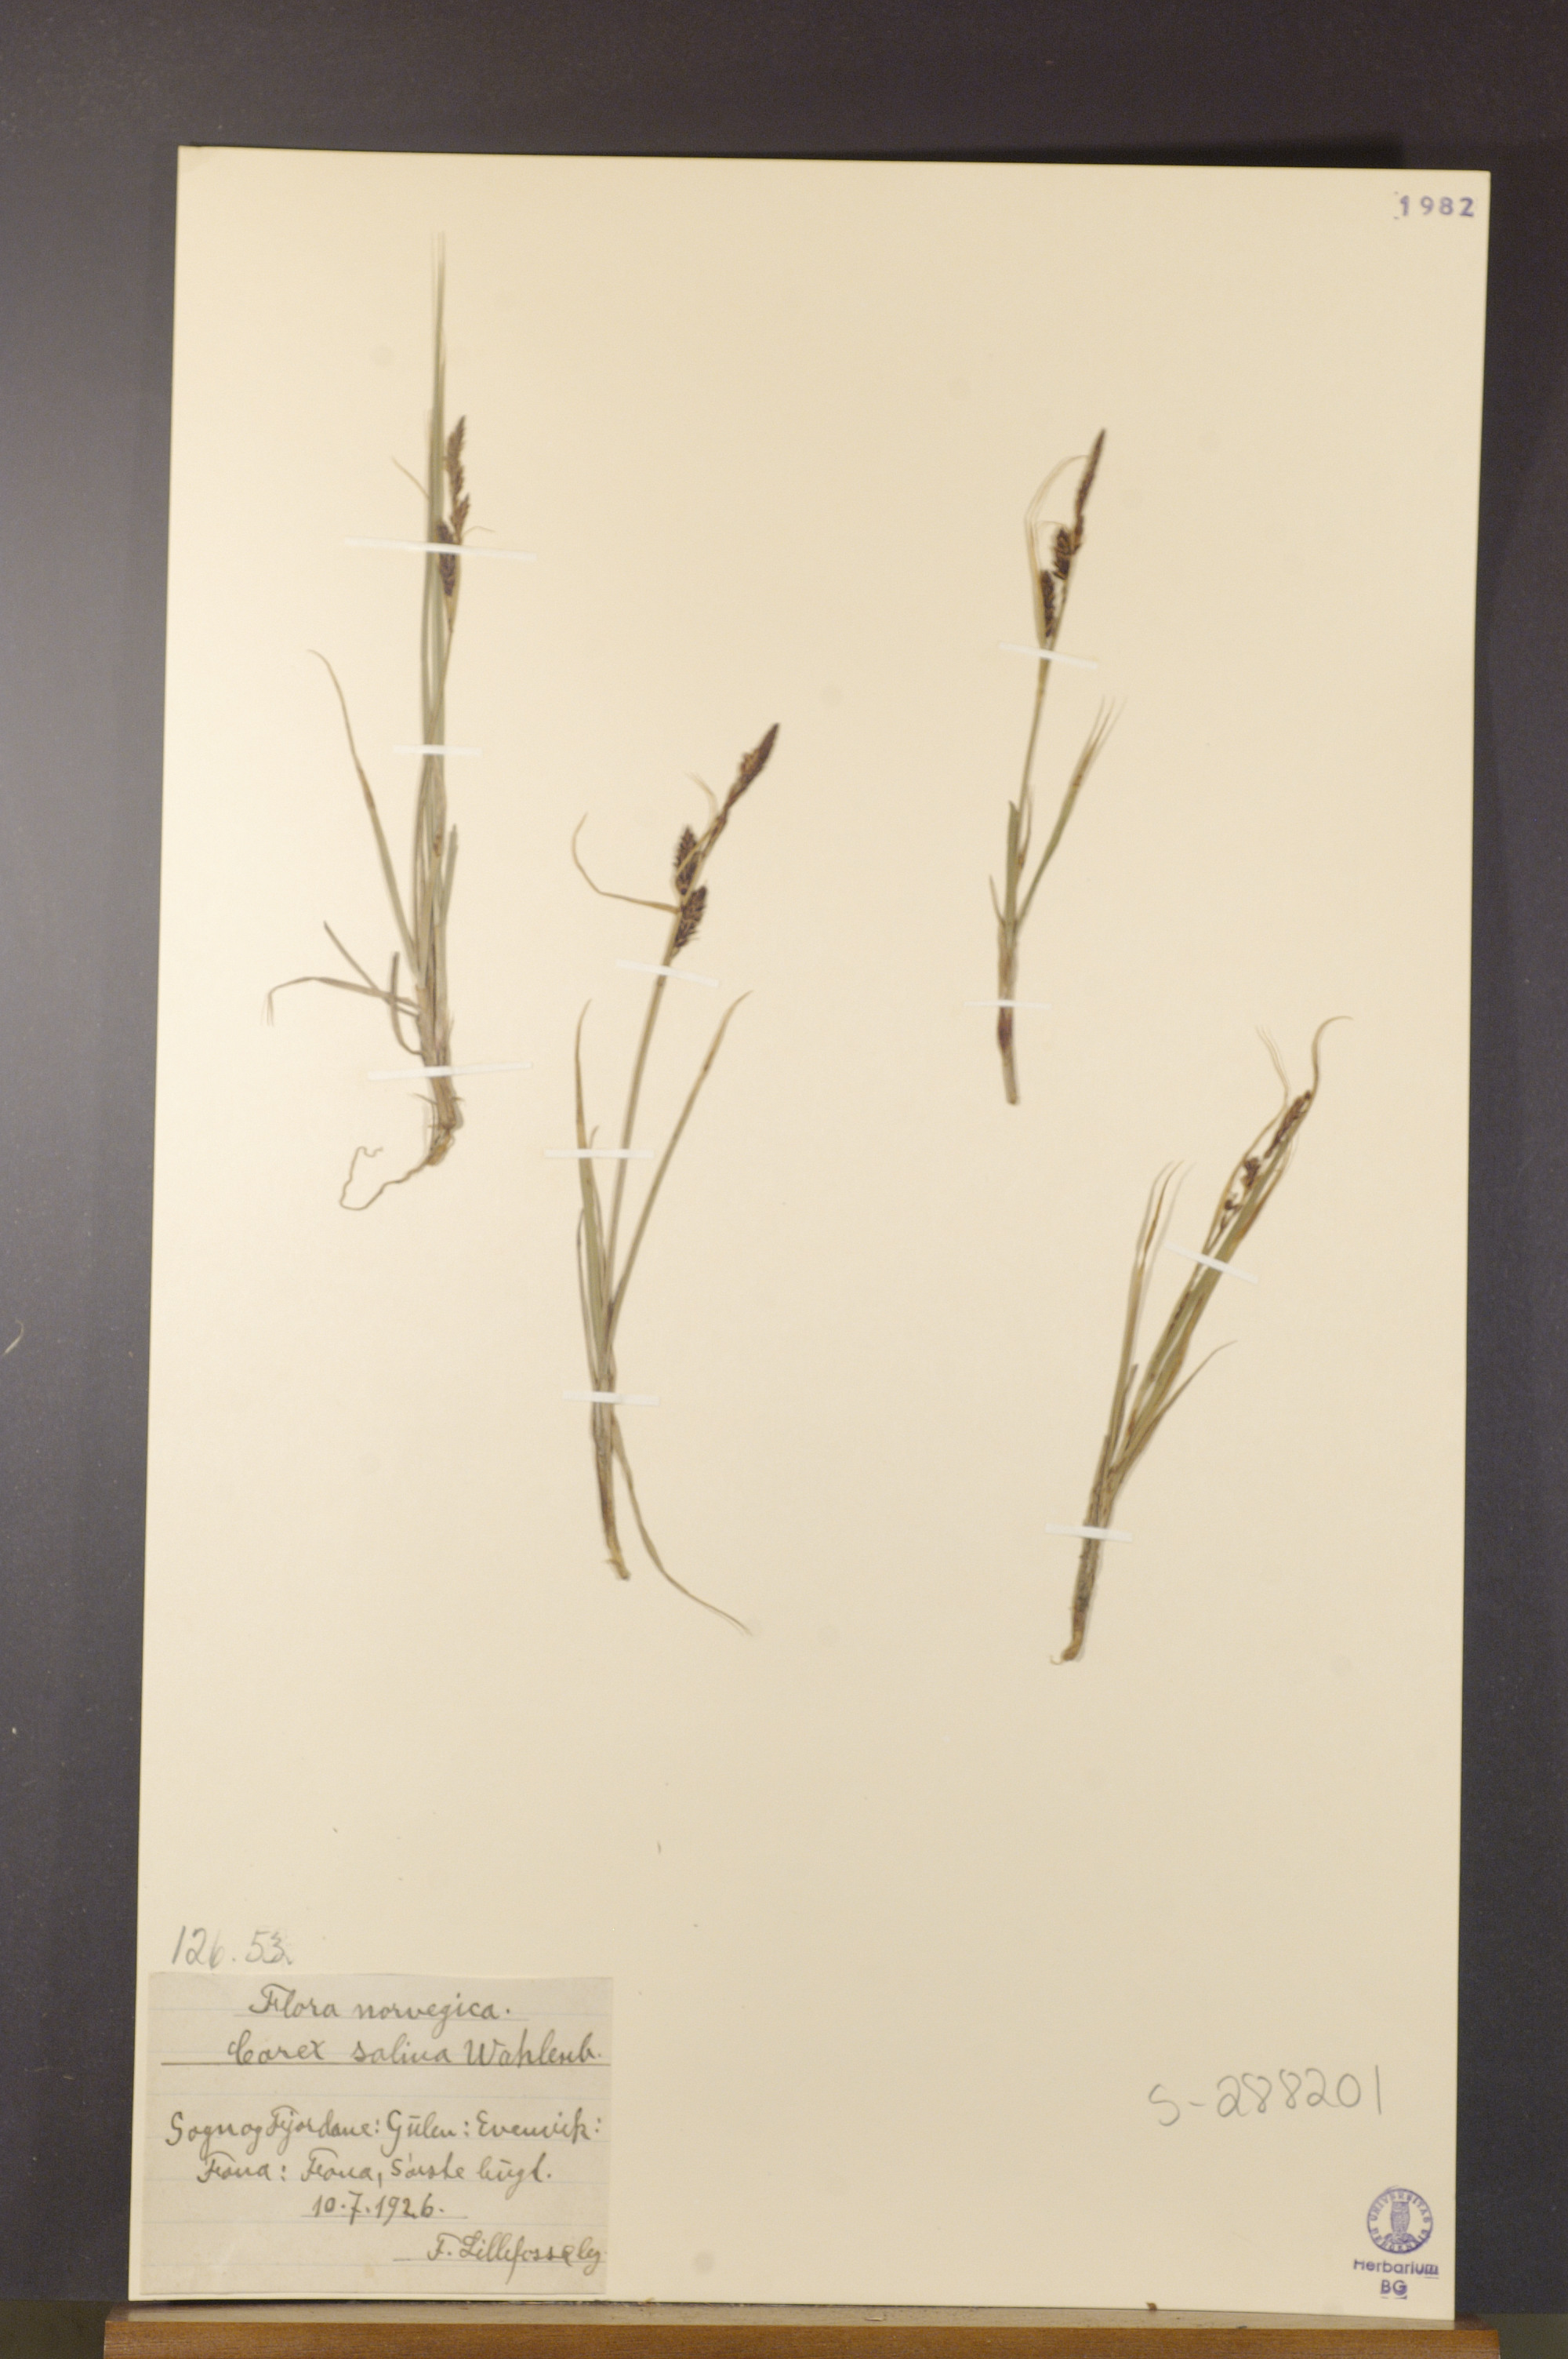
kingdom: Plantae
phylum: Tracheophyta
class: Liliopsida
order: Poales
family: Cyperaceae
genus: Carex
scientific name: Carex salina
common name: Saltmarsh sedge
